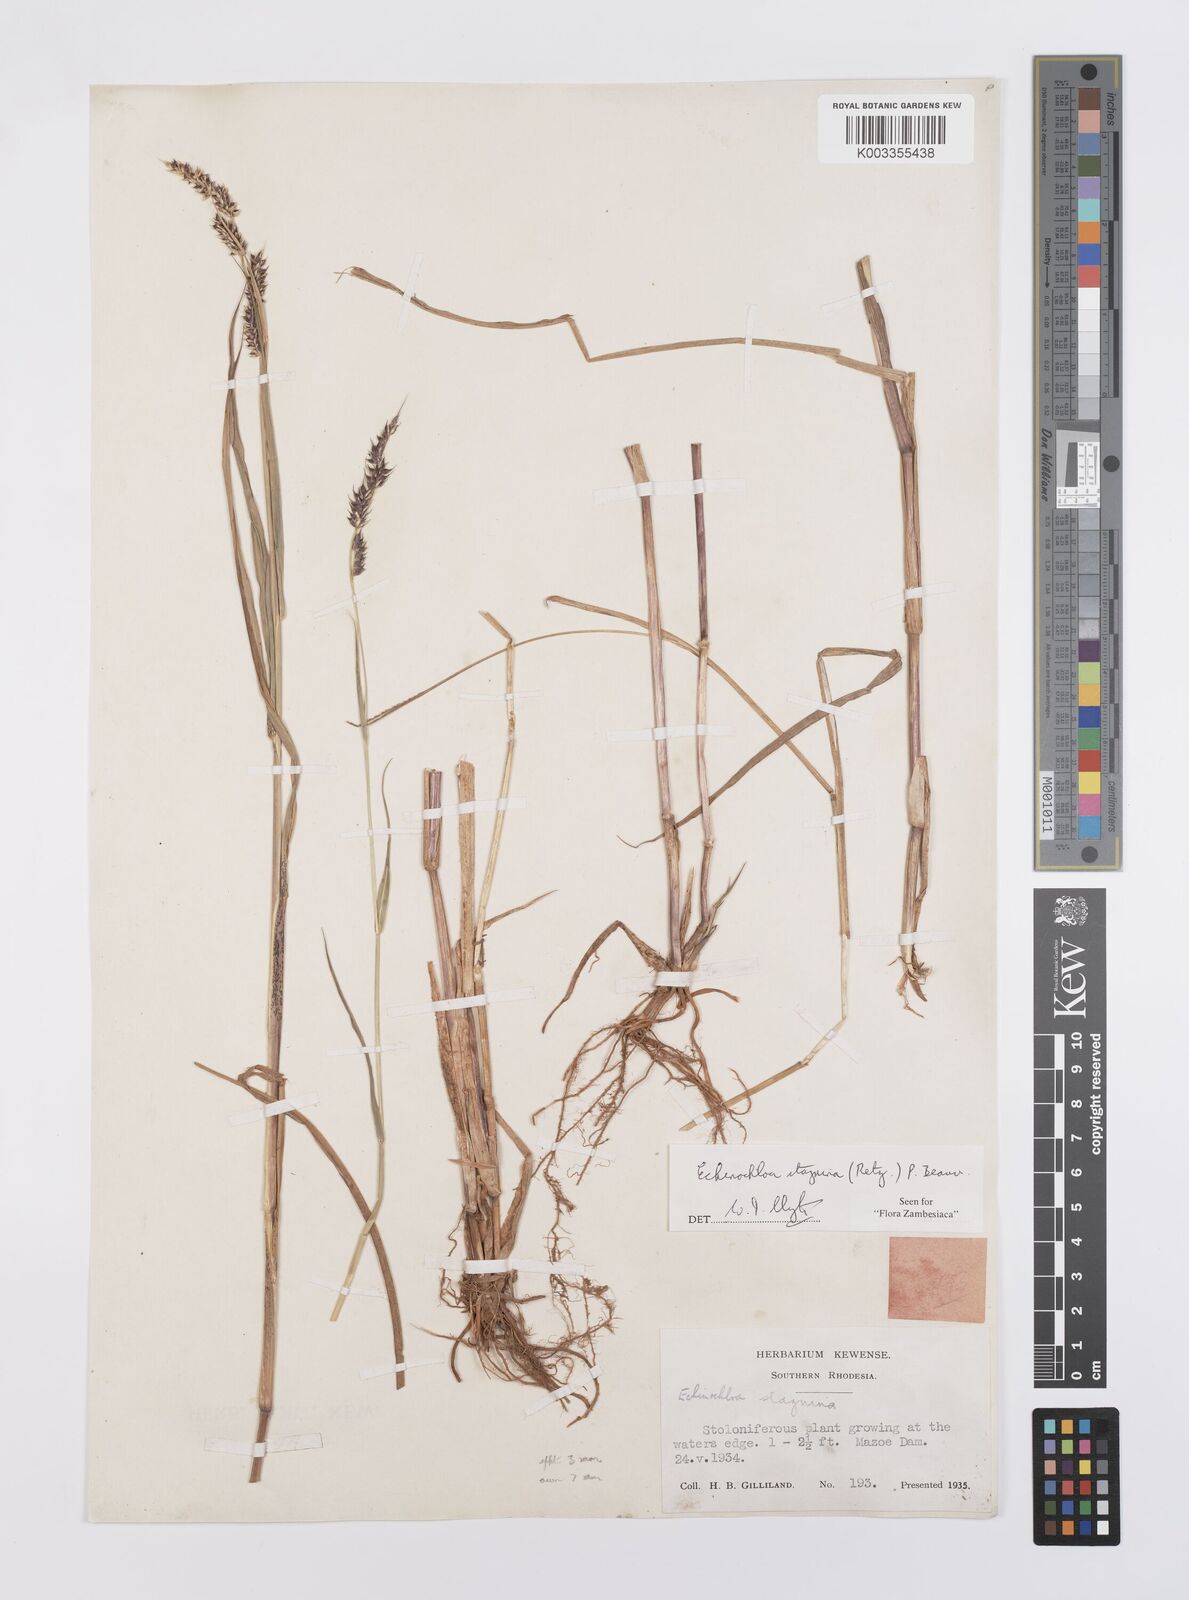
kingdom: Plantae
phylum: Tracheophyta
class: Liliopsida
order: Poales
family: Poaceae
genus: Echinochloa
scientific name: Echinochloa stagnina
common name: Burgu grass
